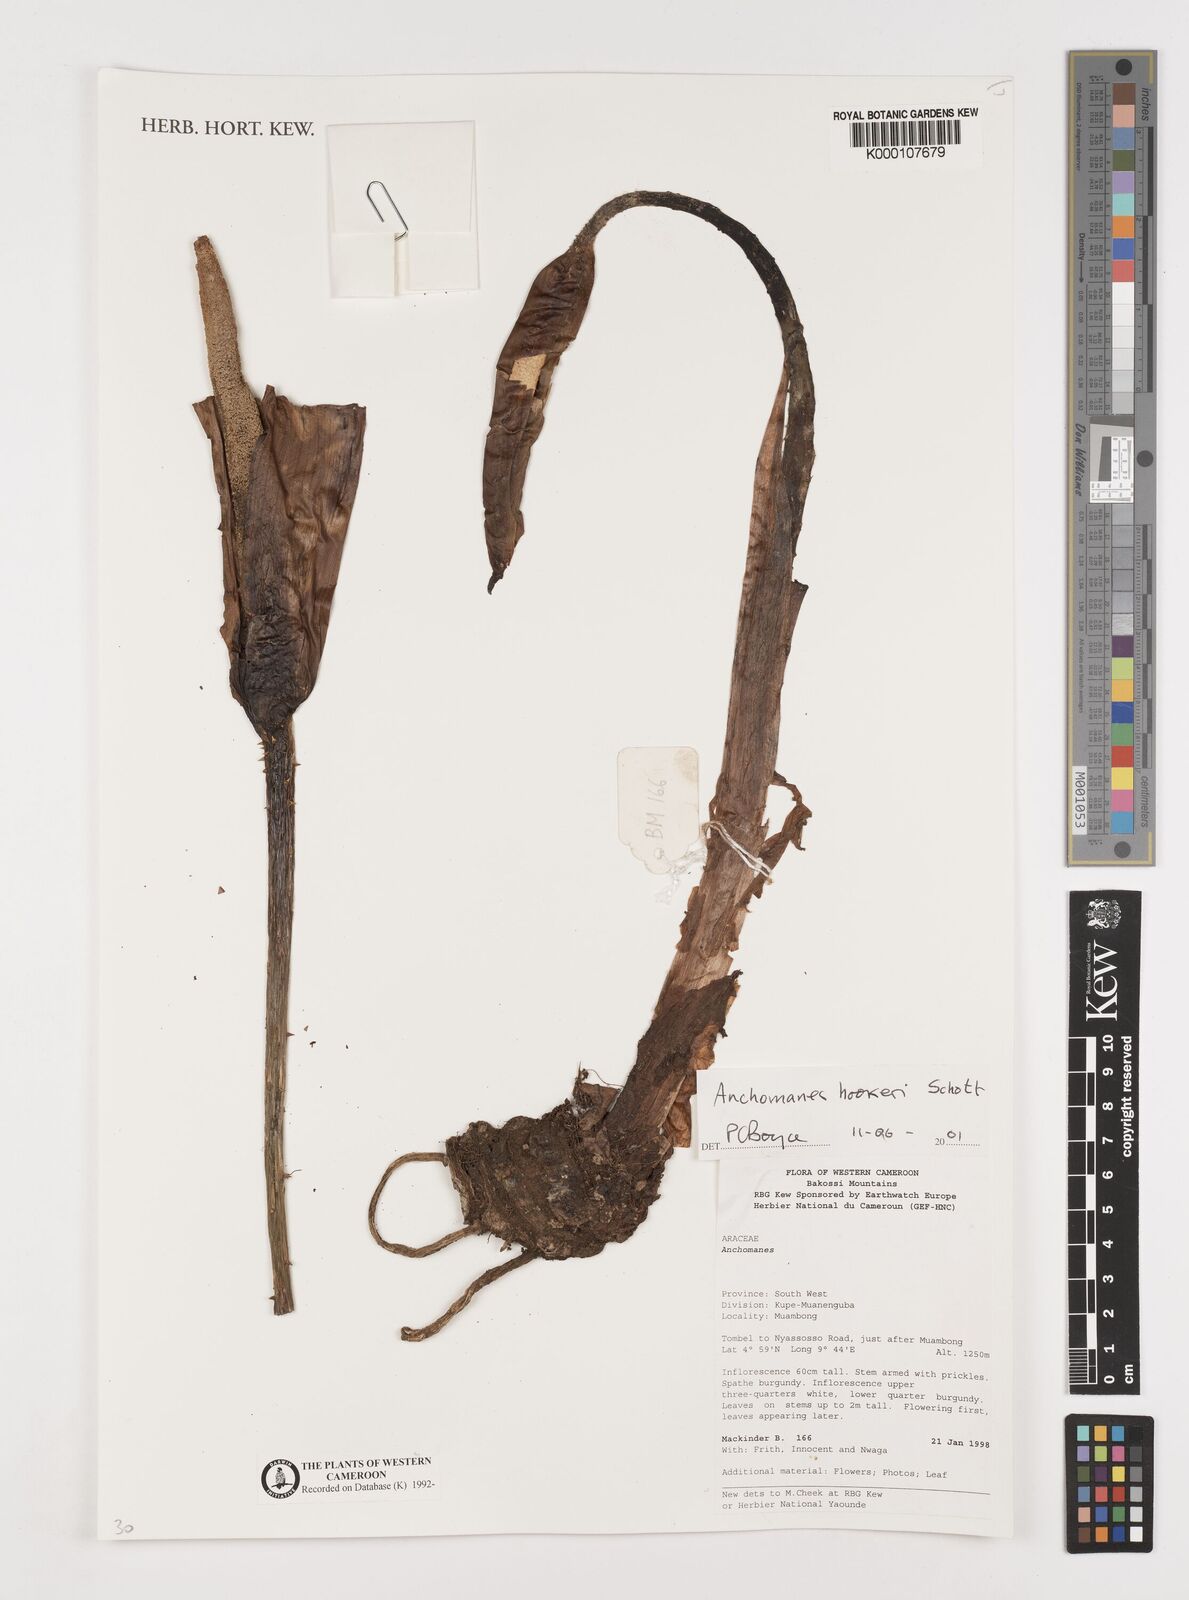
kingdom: Plantae
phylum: Tracheophyta
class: Liliopsida
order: Alismatales
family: Araceae
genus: Anchomanes
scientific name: Anchomanes difformis
